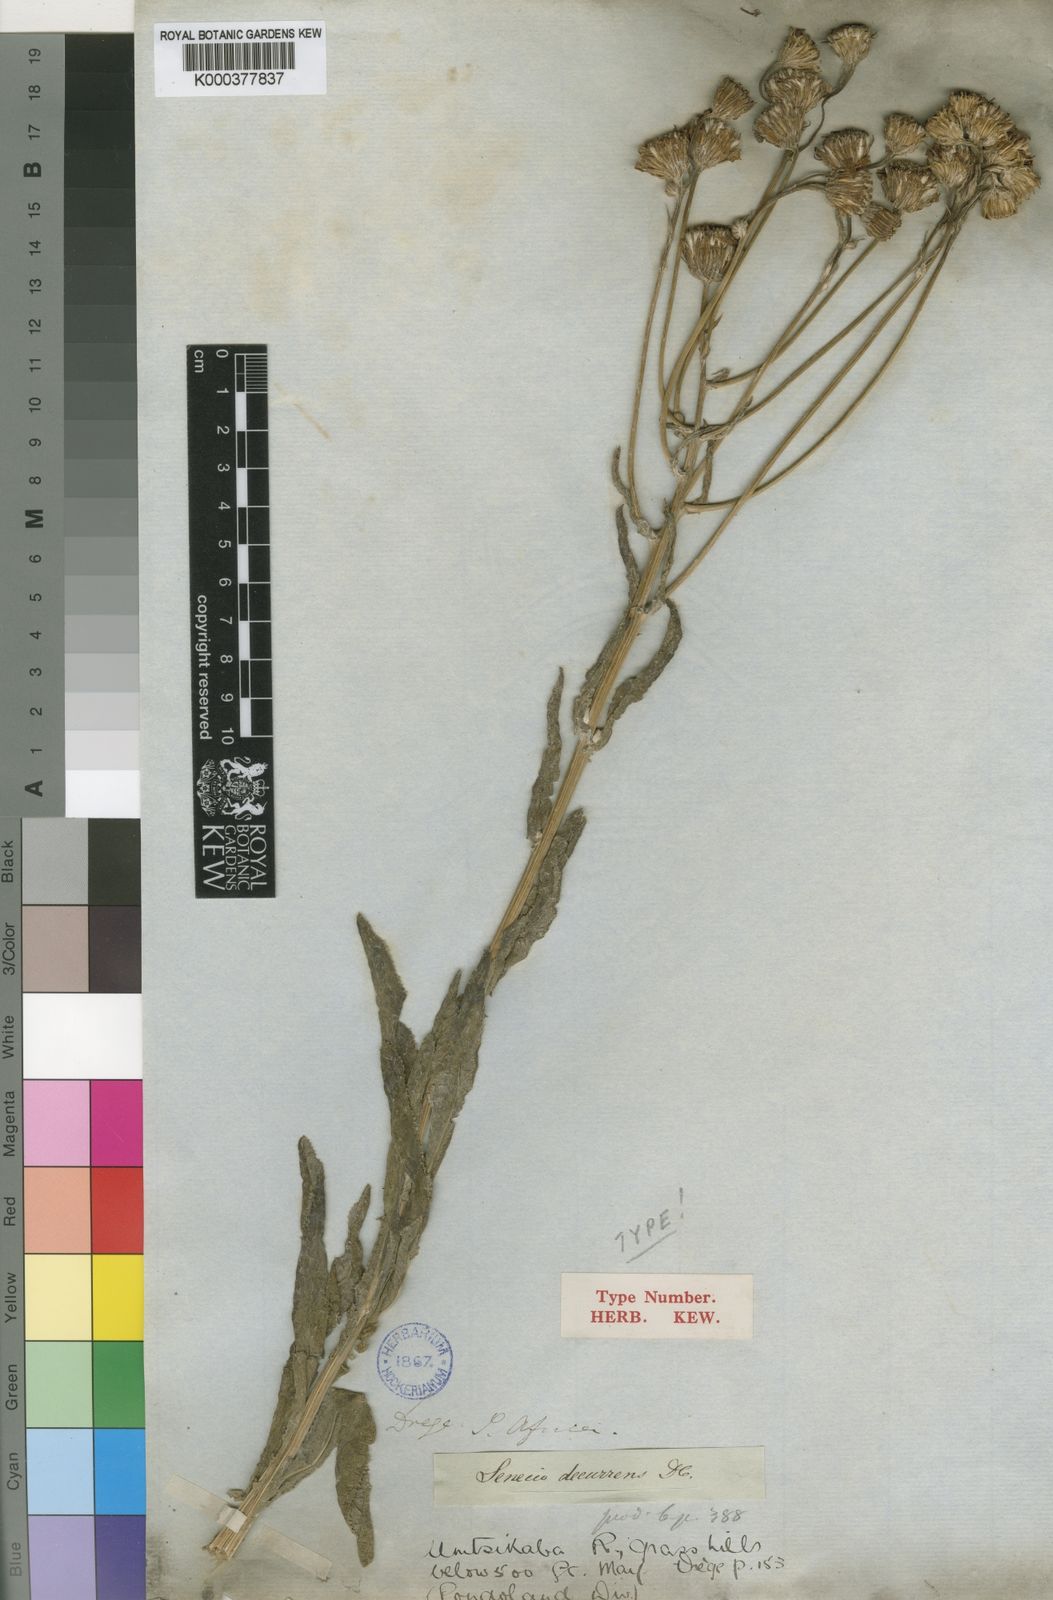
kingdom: Plantae
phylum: Tracheophyta
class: Magnoliopsida
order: Asterales
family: Asteraceae
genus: Senecio
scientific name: Senecio decurrens
